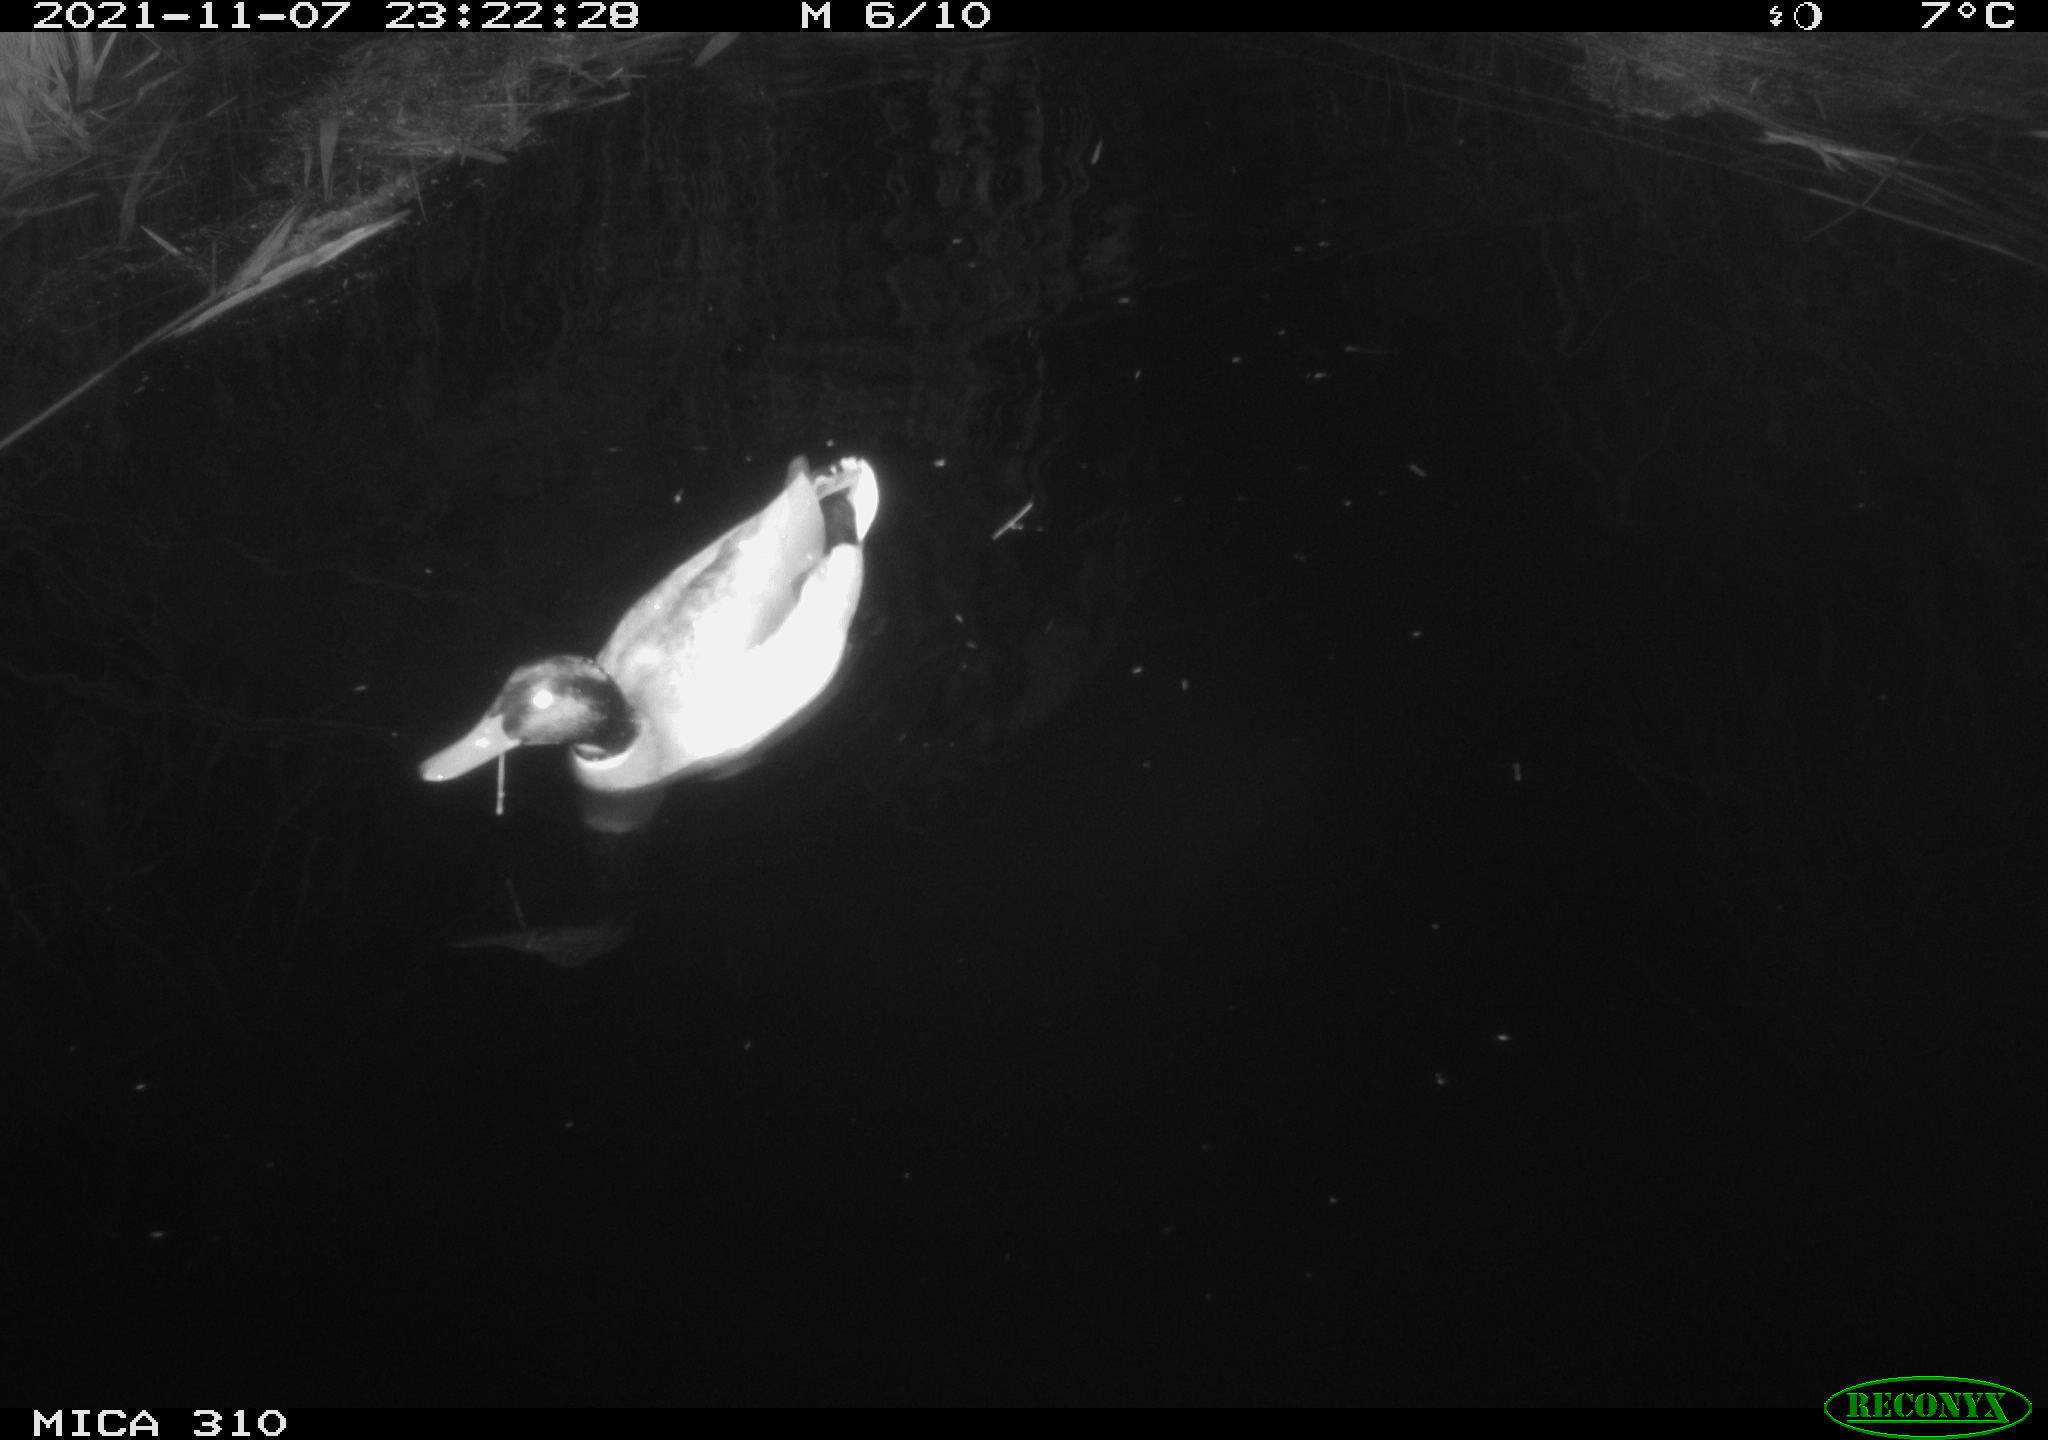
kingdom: Animalia
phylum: Chordata
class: Aves
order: Anseriformes
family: Anatidae
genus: Anas
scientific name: Anas platyrhynchos
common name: Mallard
